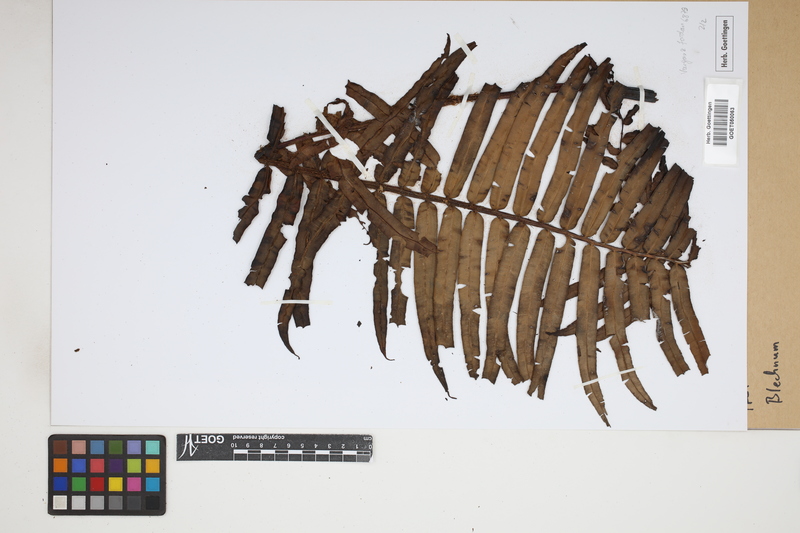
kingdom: Plantae
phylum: Tracheophyta
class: Polypodiopsida
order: Polypodiales
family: Blechnaceae
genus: Blechnum
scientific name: Blechnum
